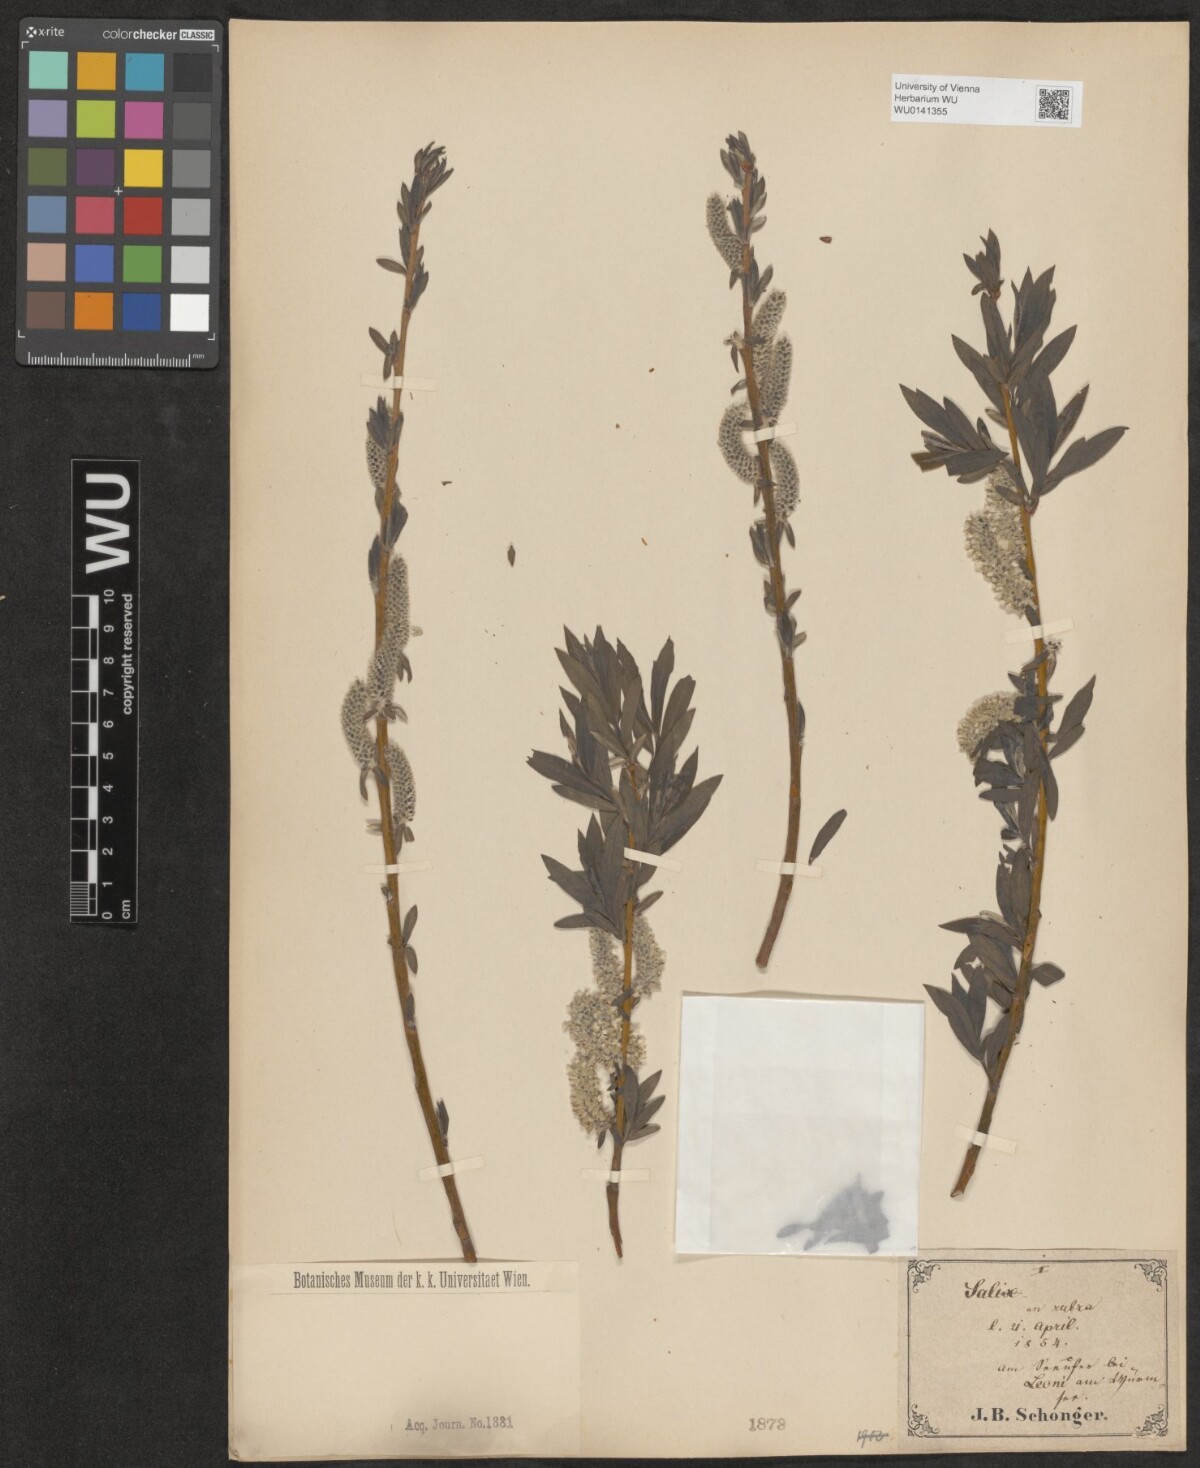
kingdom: Plantae
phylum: Tracheophyta
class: Magnoliopsida
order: Malpighiales
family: Salicaceae
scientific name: Salicaceae
